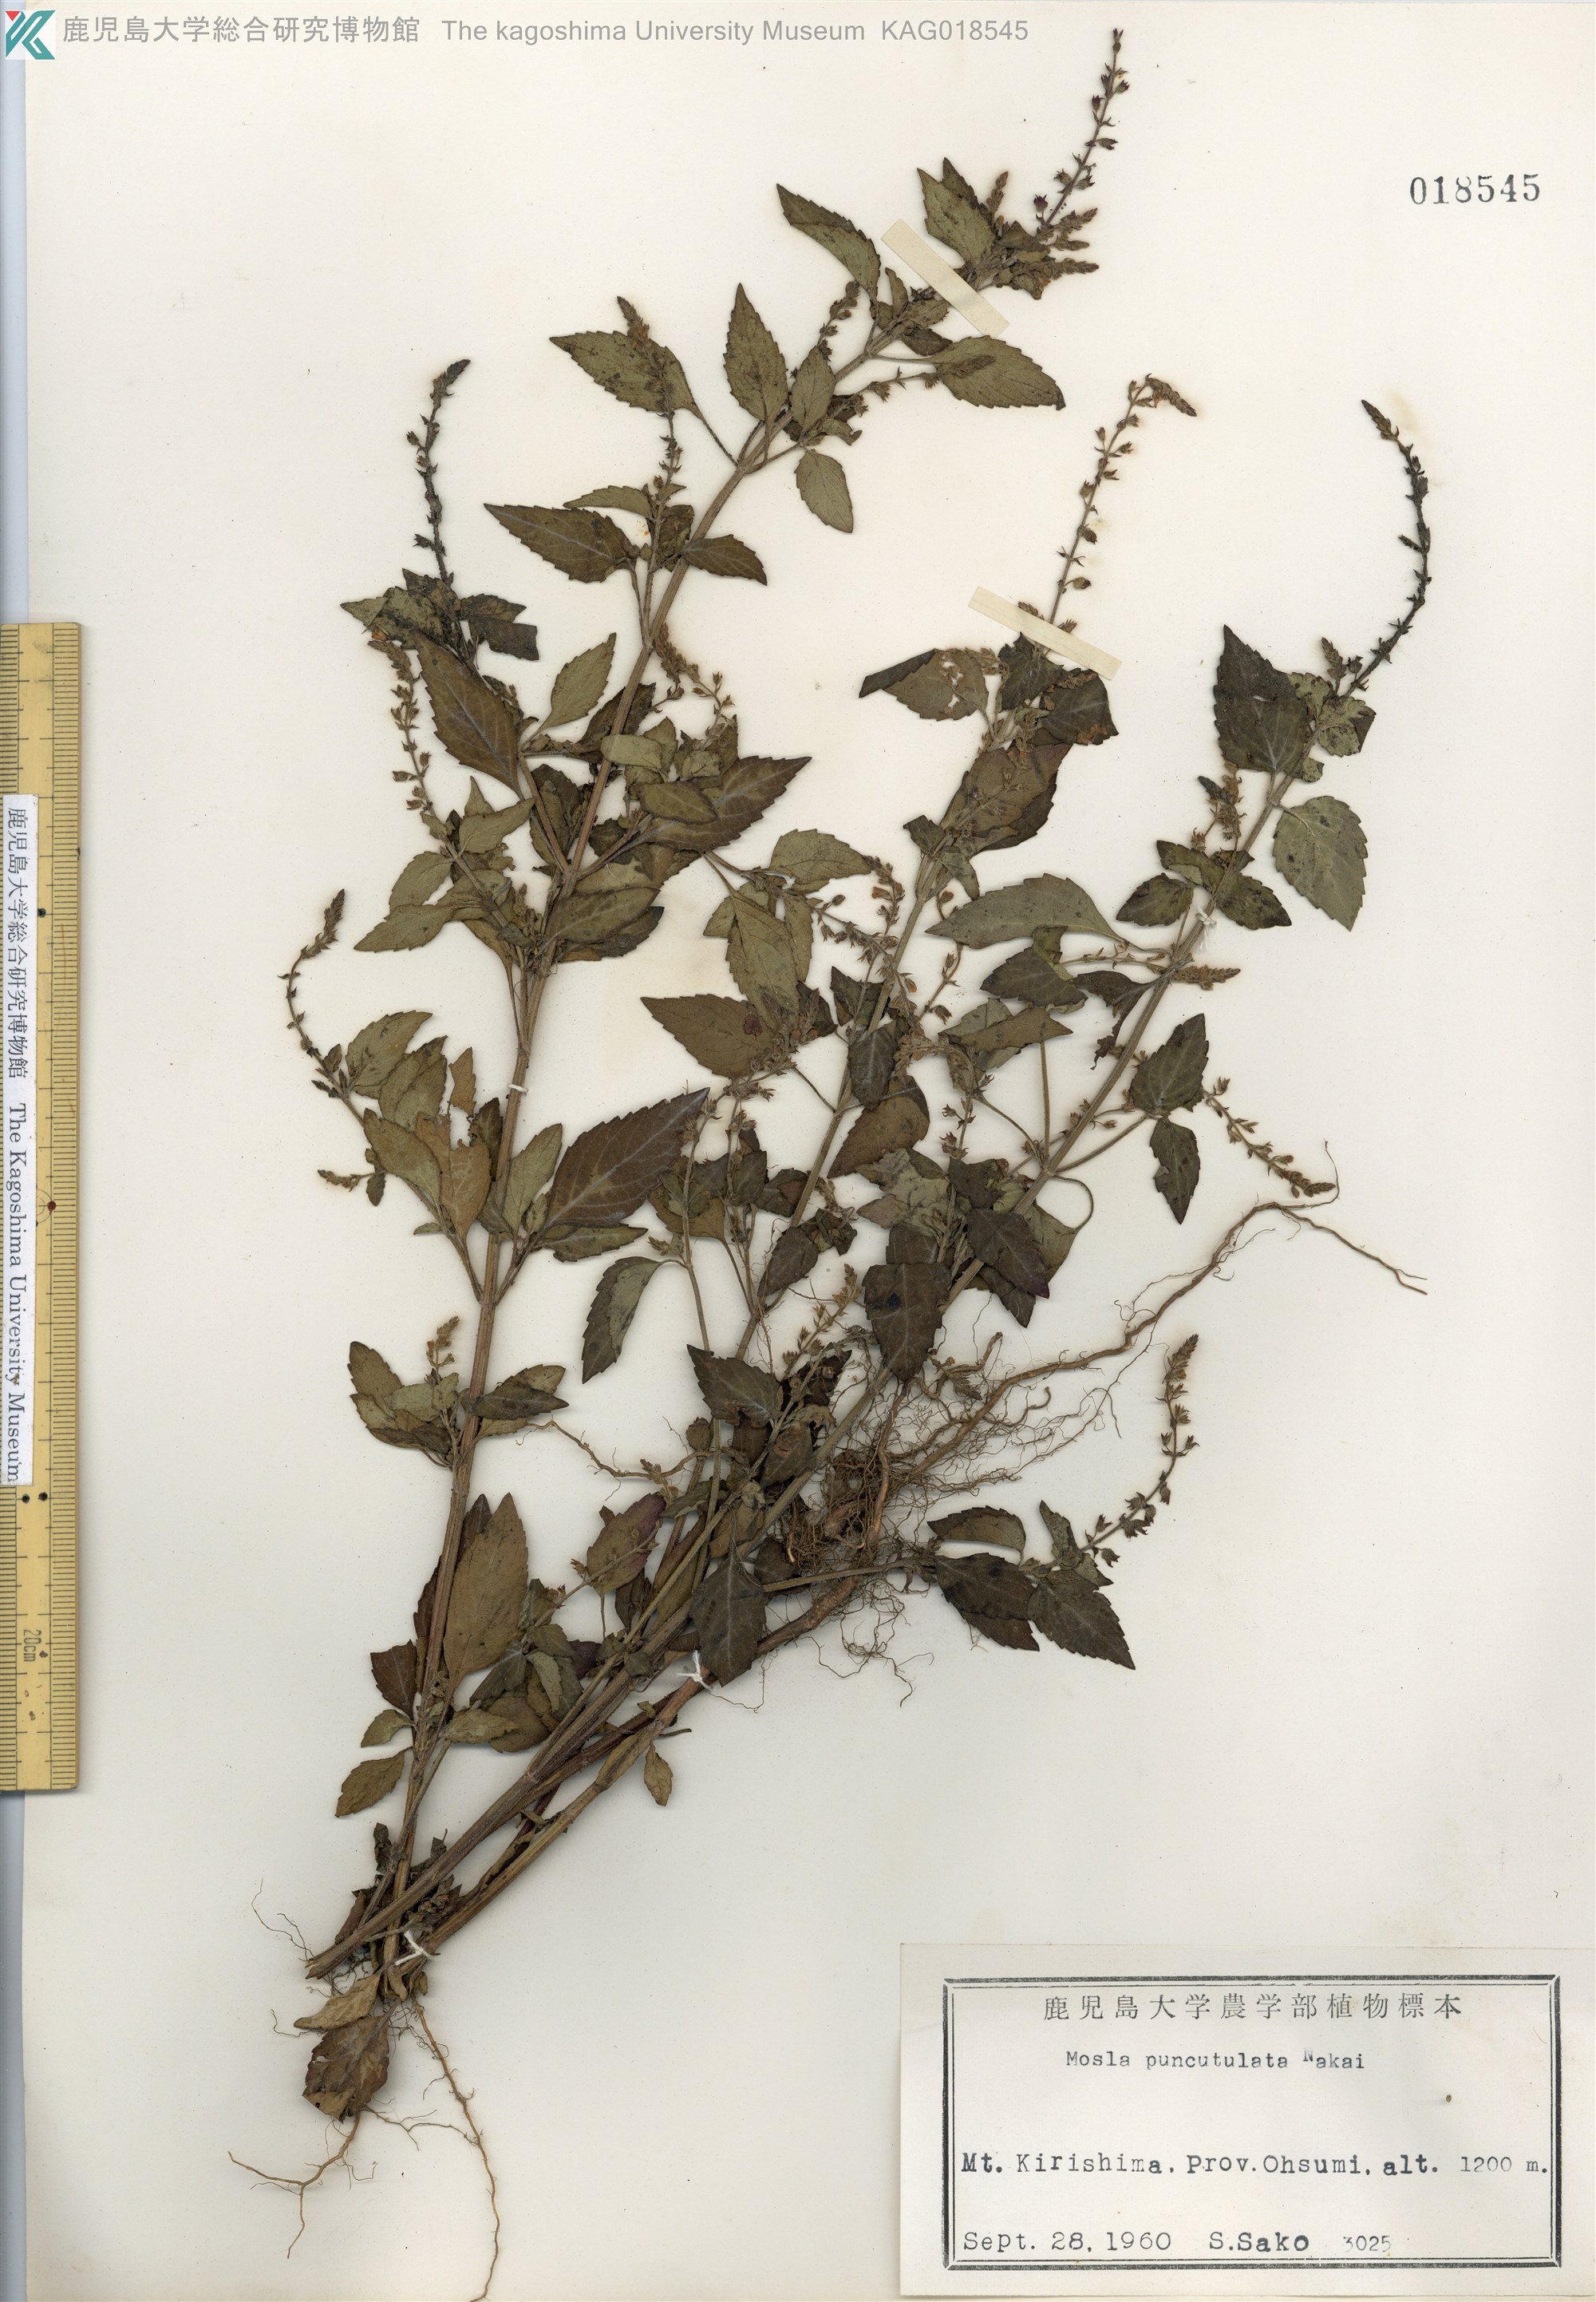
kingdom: Plantae
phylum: Tracheophyta
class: Magnoliopsida
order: Lamiales
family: Lamiaceae
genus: Mosla
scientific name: Mosla scabra
